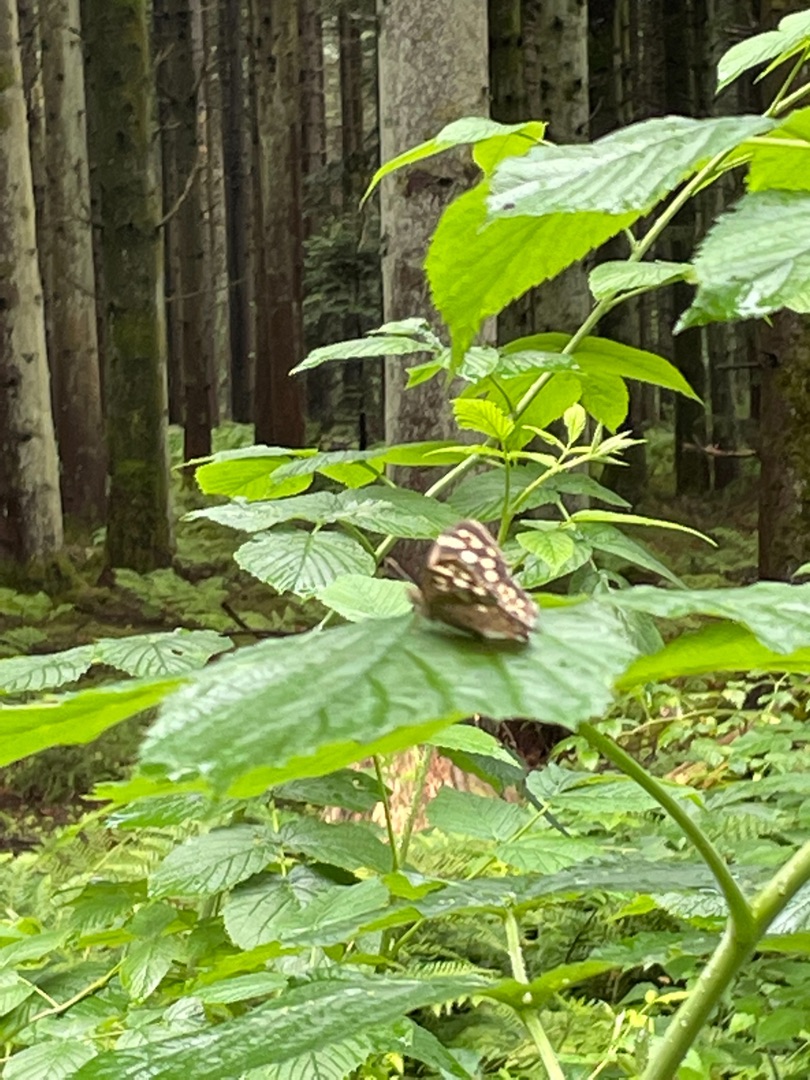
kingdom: Animalia
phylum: Arthropoda
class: Insecta
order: Lepidoptera
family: Nymphalidae
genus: Pararge
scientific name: Pararge aegeria
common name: Skovrandøje
